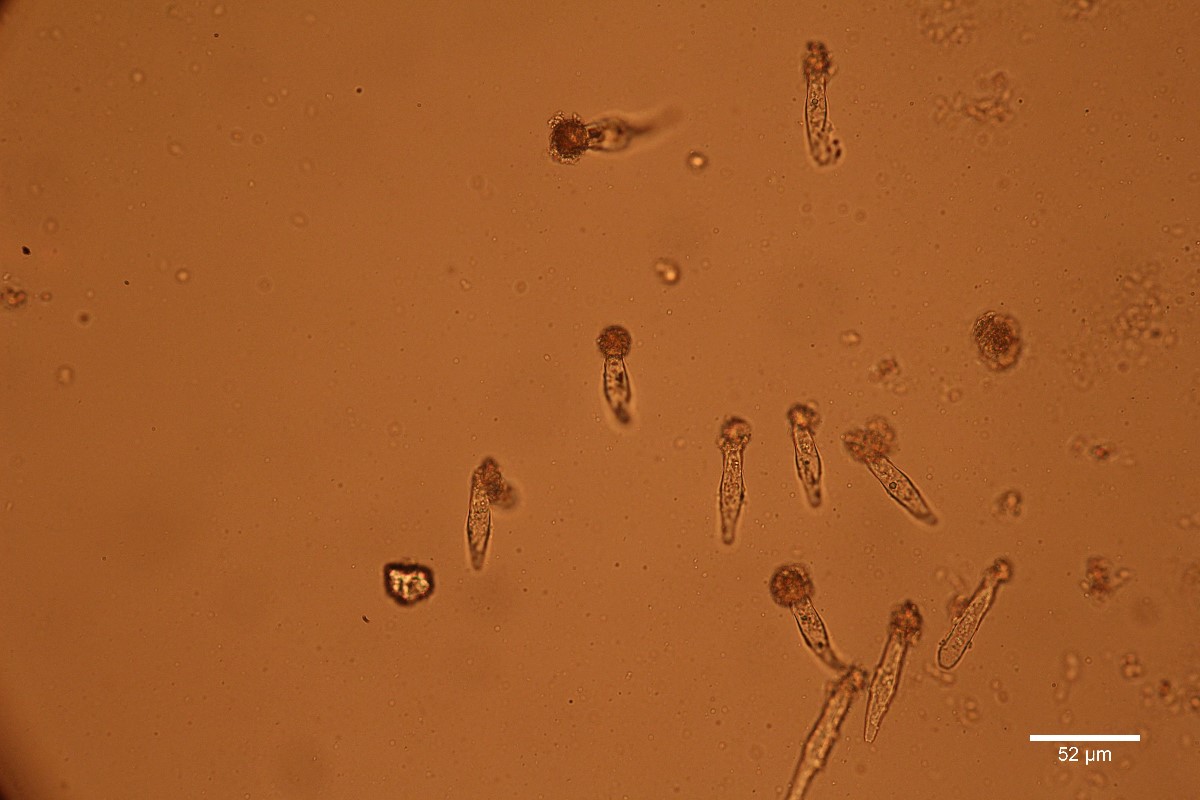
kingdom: Fungi
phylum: Basidiomycota
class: Agaricomycetes
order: Agaricales
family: Physalacriaceae
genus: Strobilurus
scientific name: Strobilurus stephanocystis
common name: fyrre-koglehat
